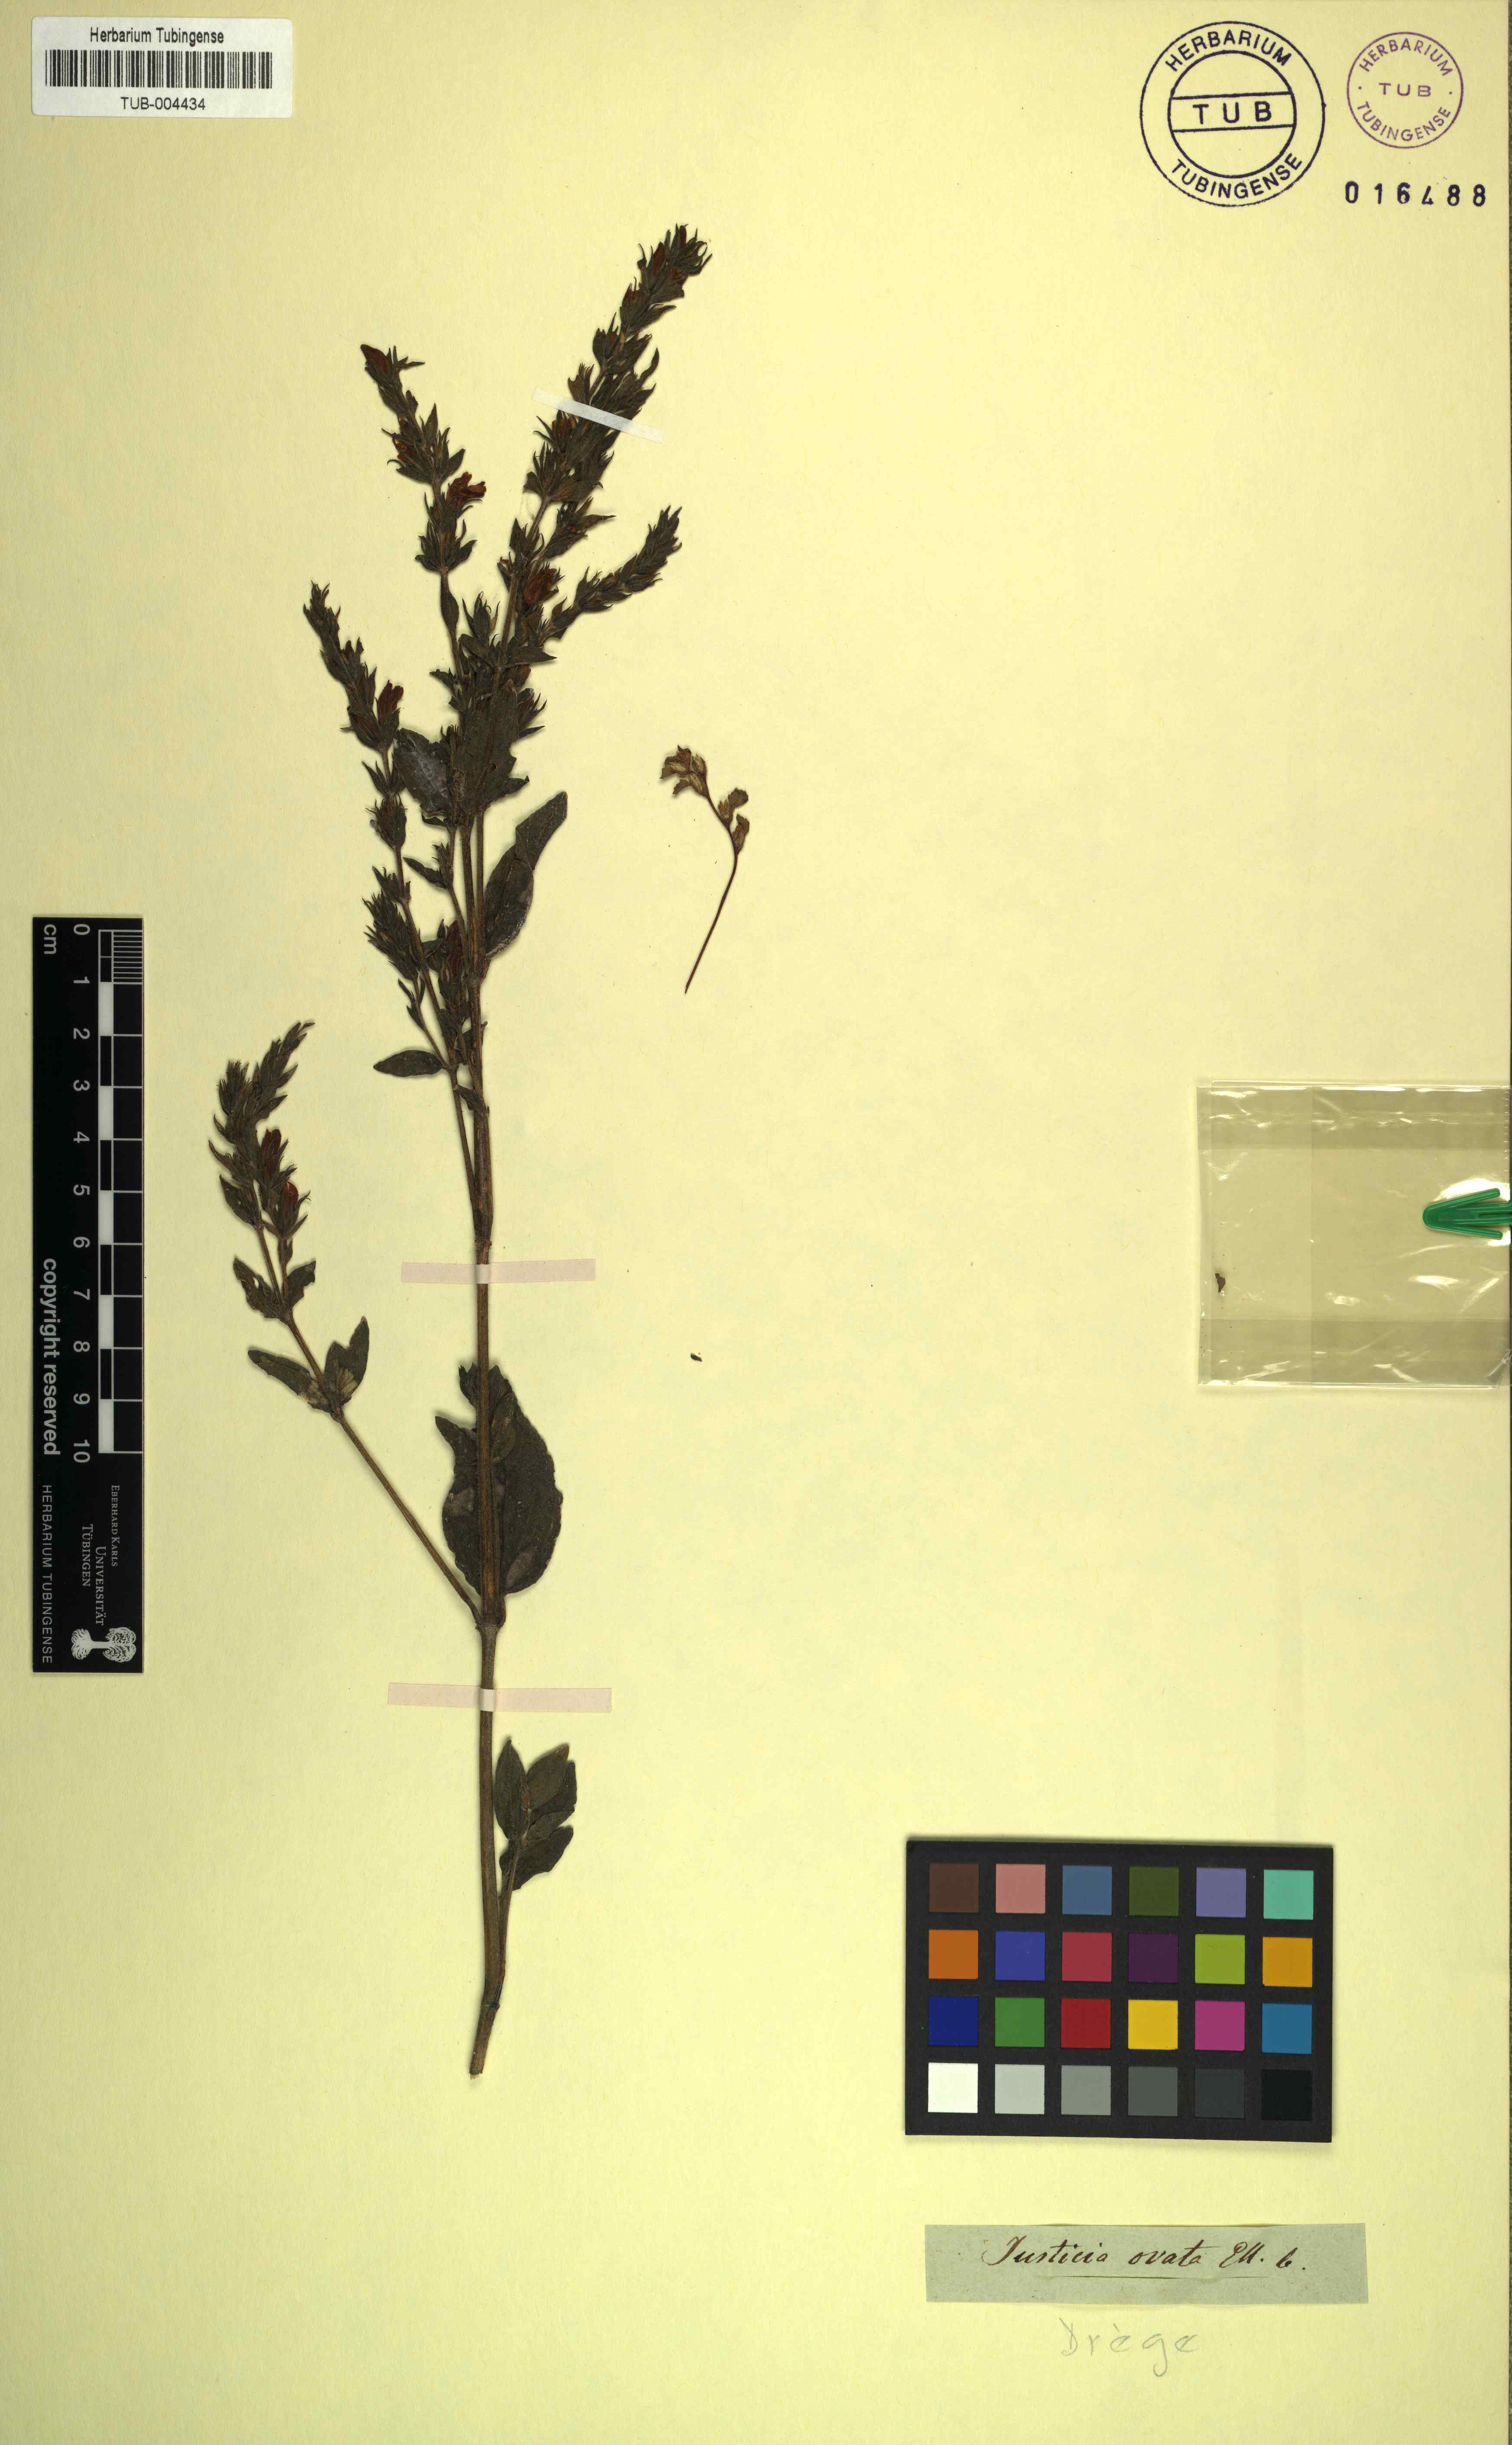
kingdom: Plantae
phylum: Tracheophyta
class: Magnoliopsida
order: Lamiales
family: Acanthaceae
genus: Isoglossa
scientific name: Isoglossa ovata
